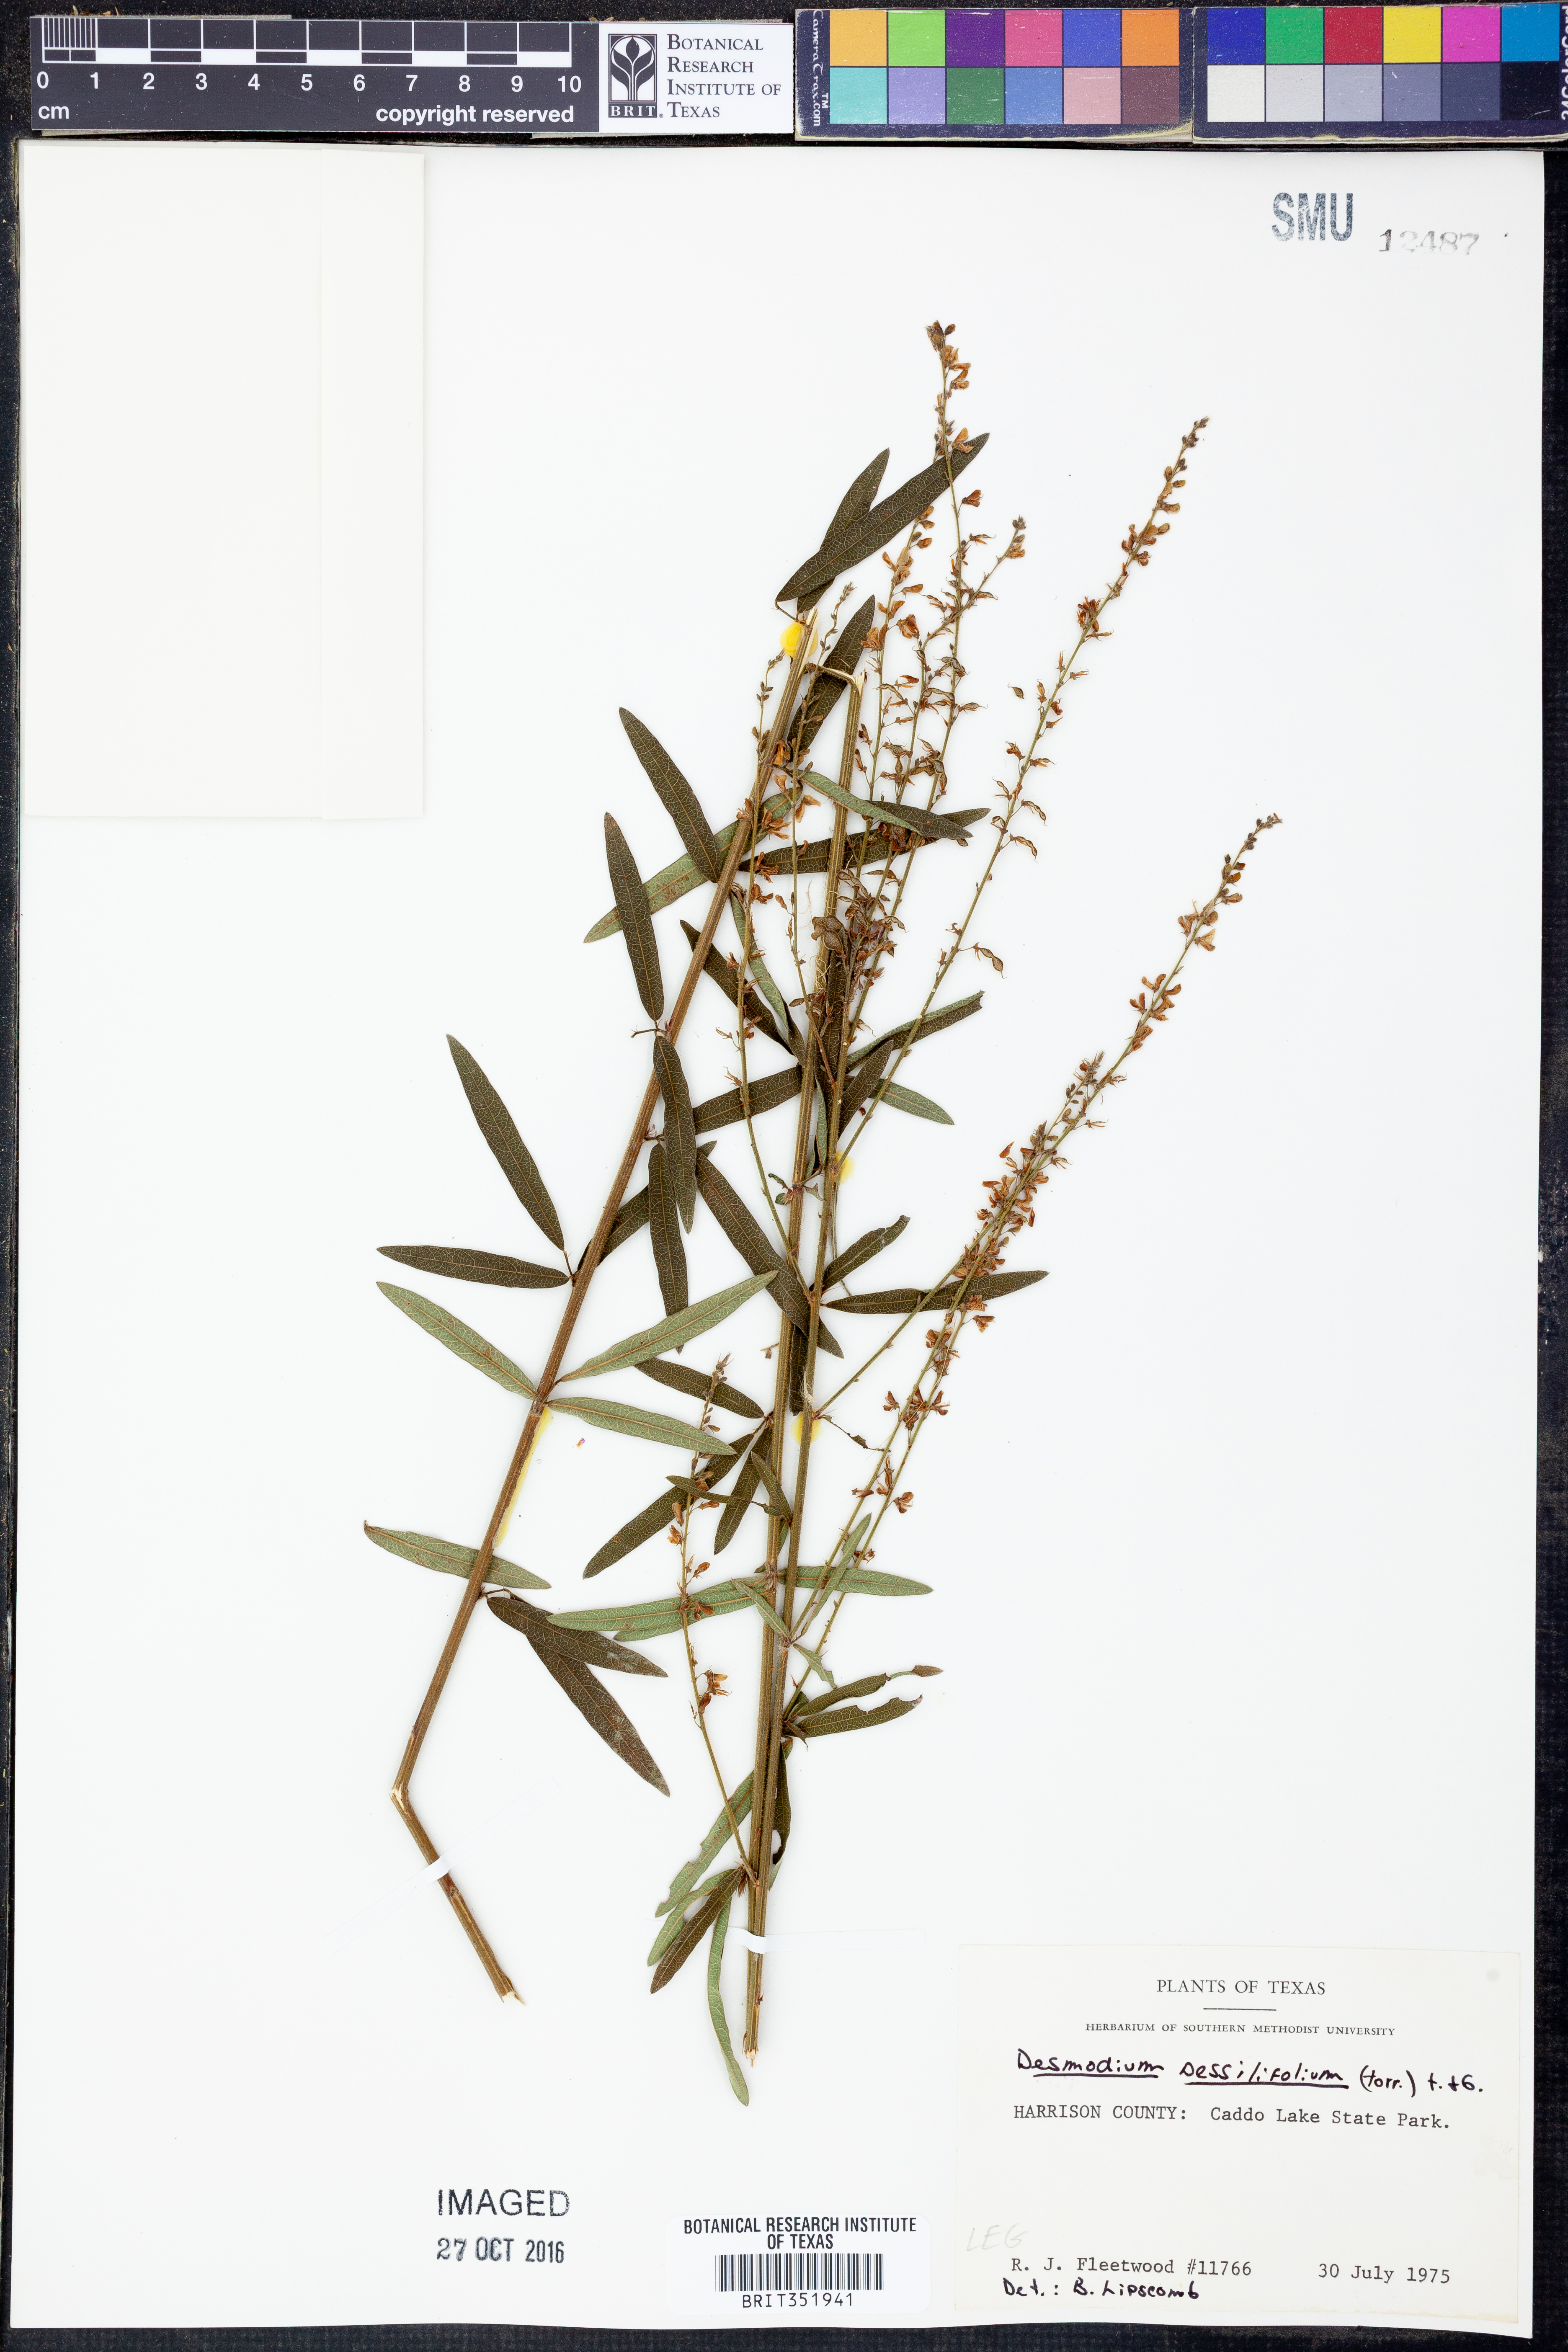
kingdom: Plantae
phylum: Tracheophyta
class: Magnoliopsida
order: Fabales
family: Fabaceae
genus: Desmodium
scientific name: Desmodium sessilifolium
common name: Sessile tick-clover
